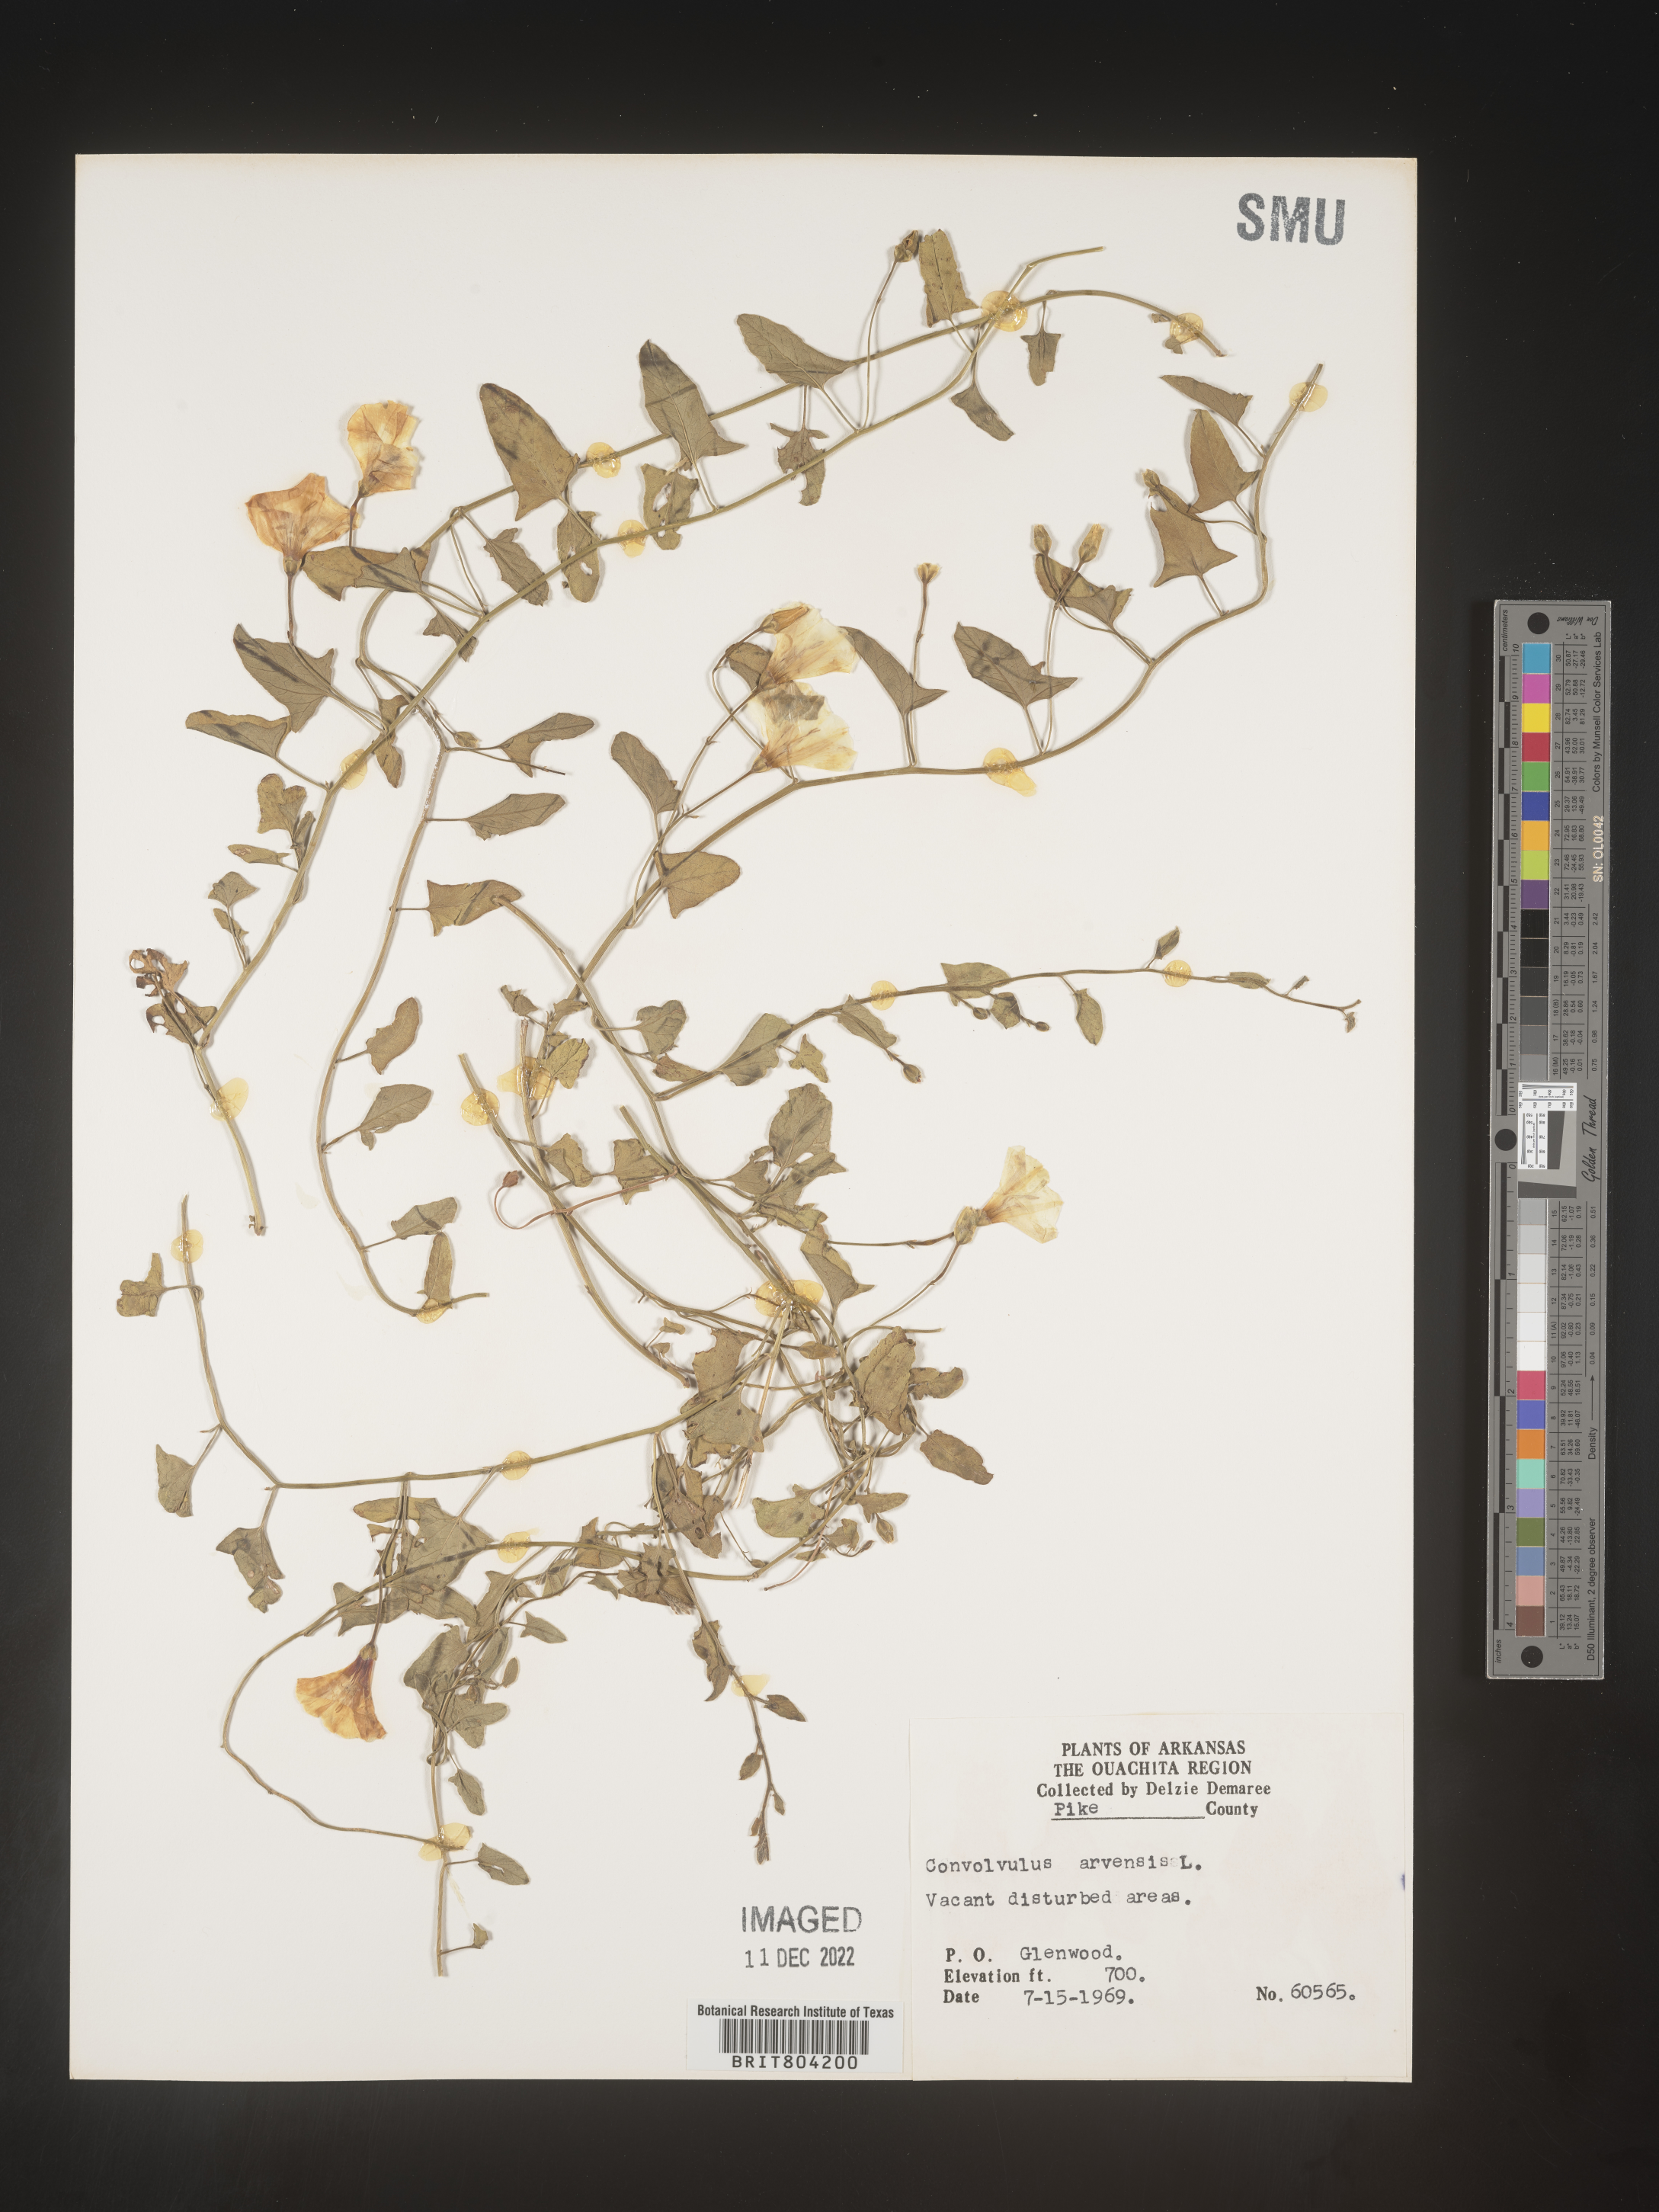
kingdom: Plantae
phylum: Tracheophyta
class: Magnoliopsida
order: Solanales
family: Convolvulaceae
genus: Convolvulus
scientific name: Convolvulus arvensis
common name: Field bindweed
